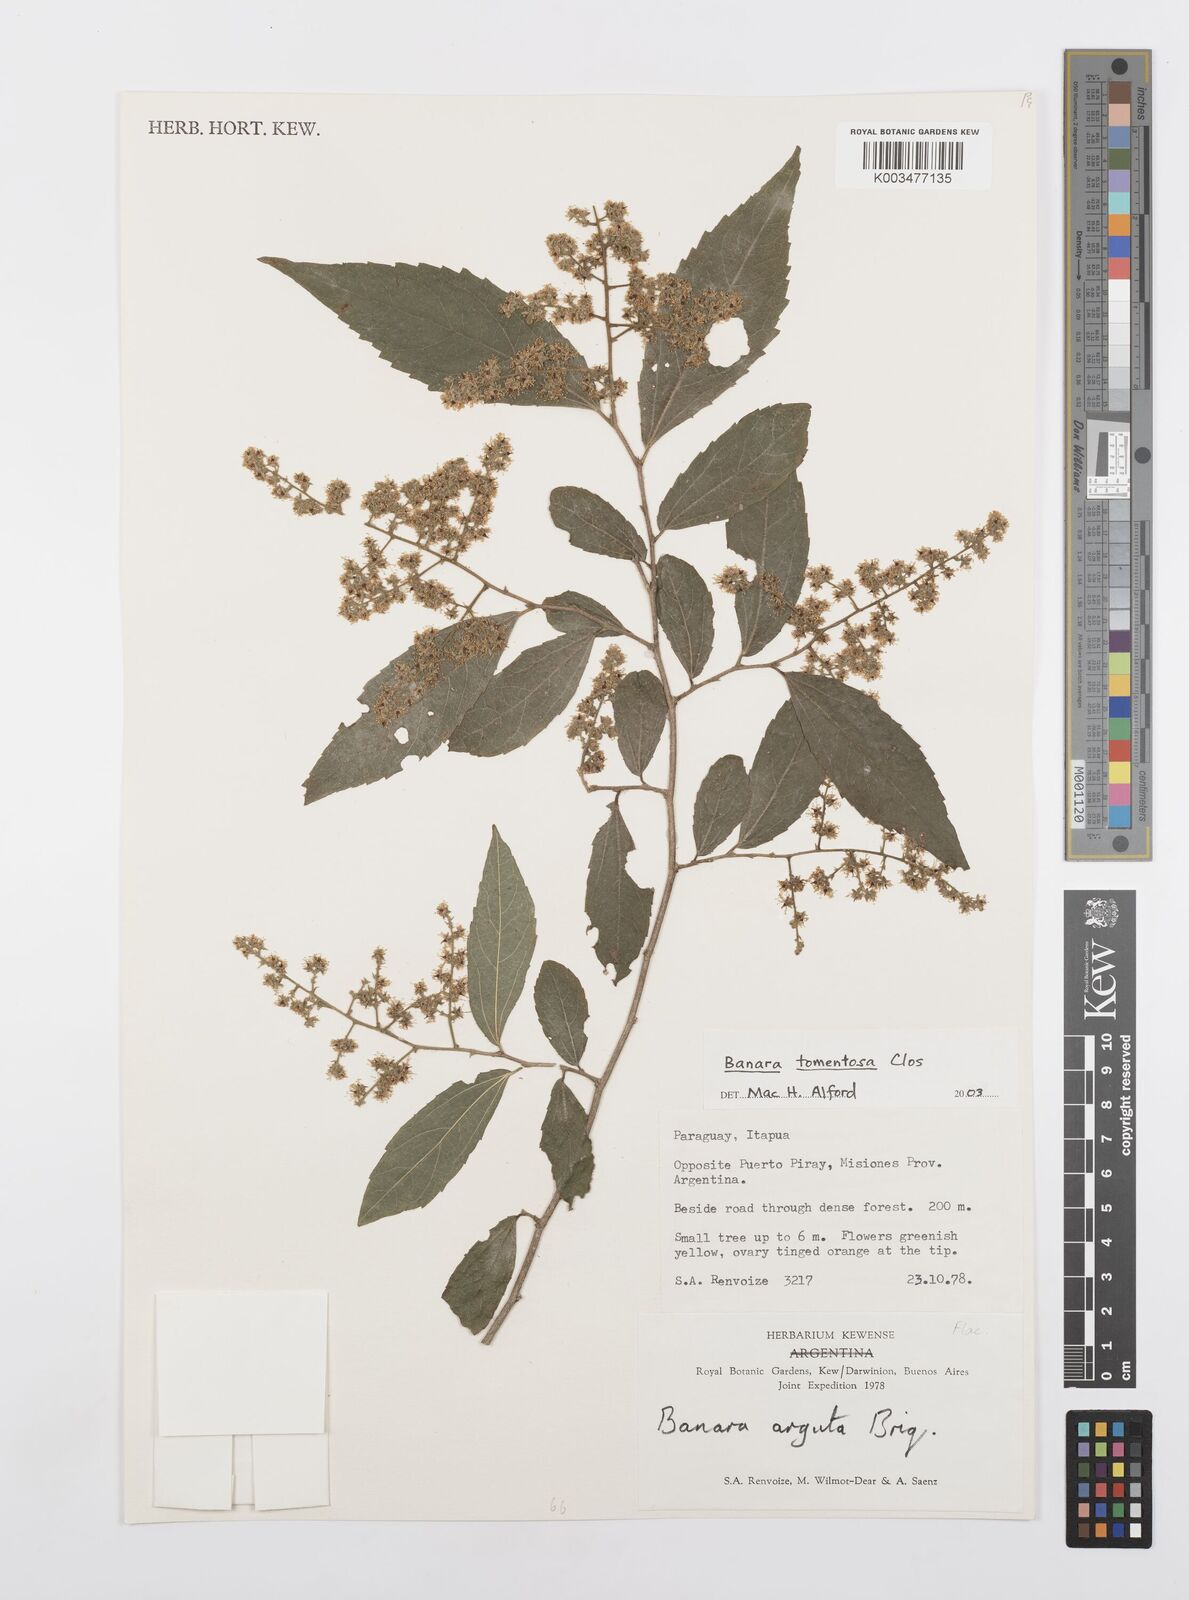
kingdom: Plantae
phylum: Tracheophyta
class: Magnoliopsida
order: Malpighiales
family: Salicaceae
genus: Banara
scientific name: Banara tomentosa
